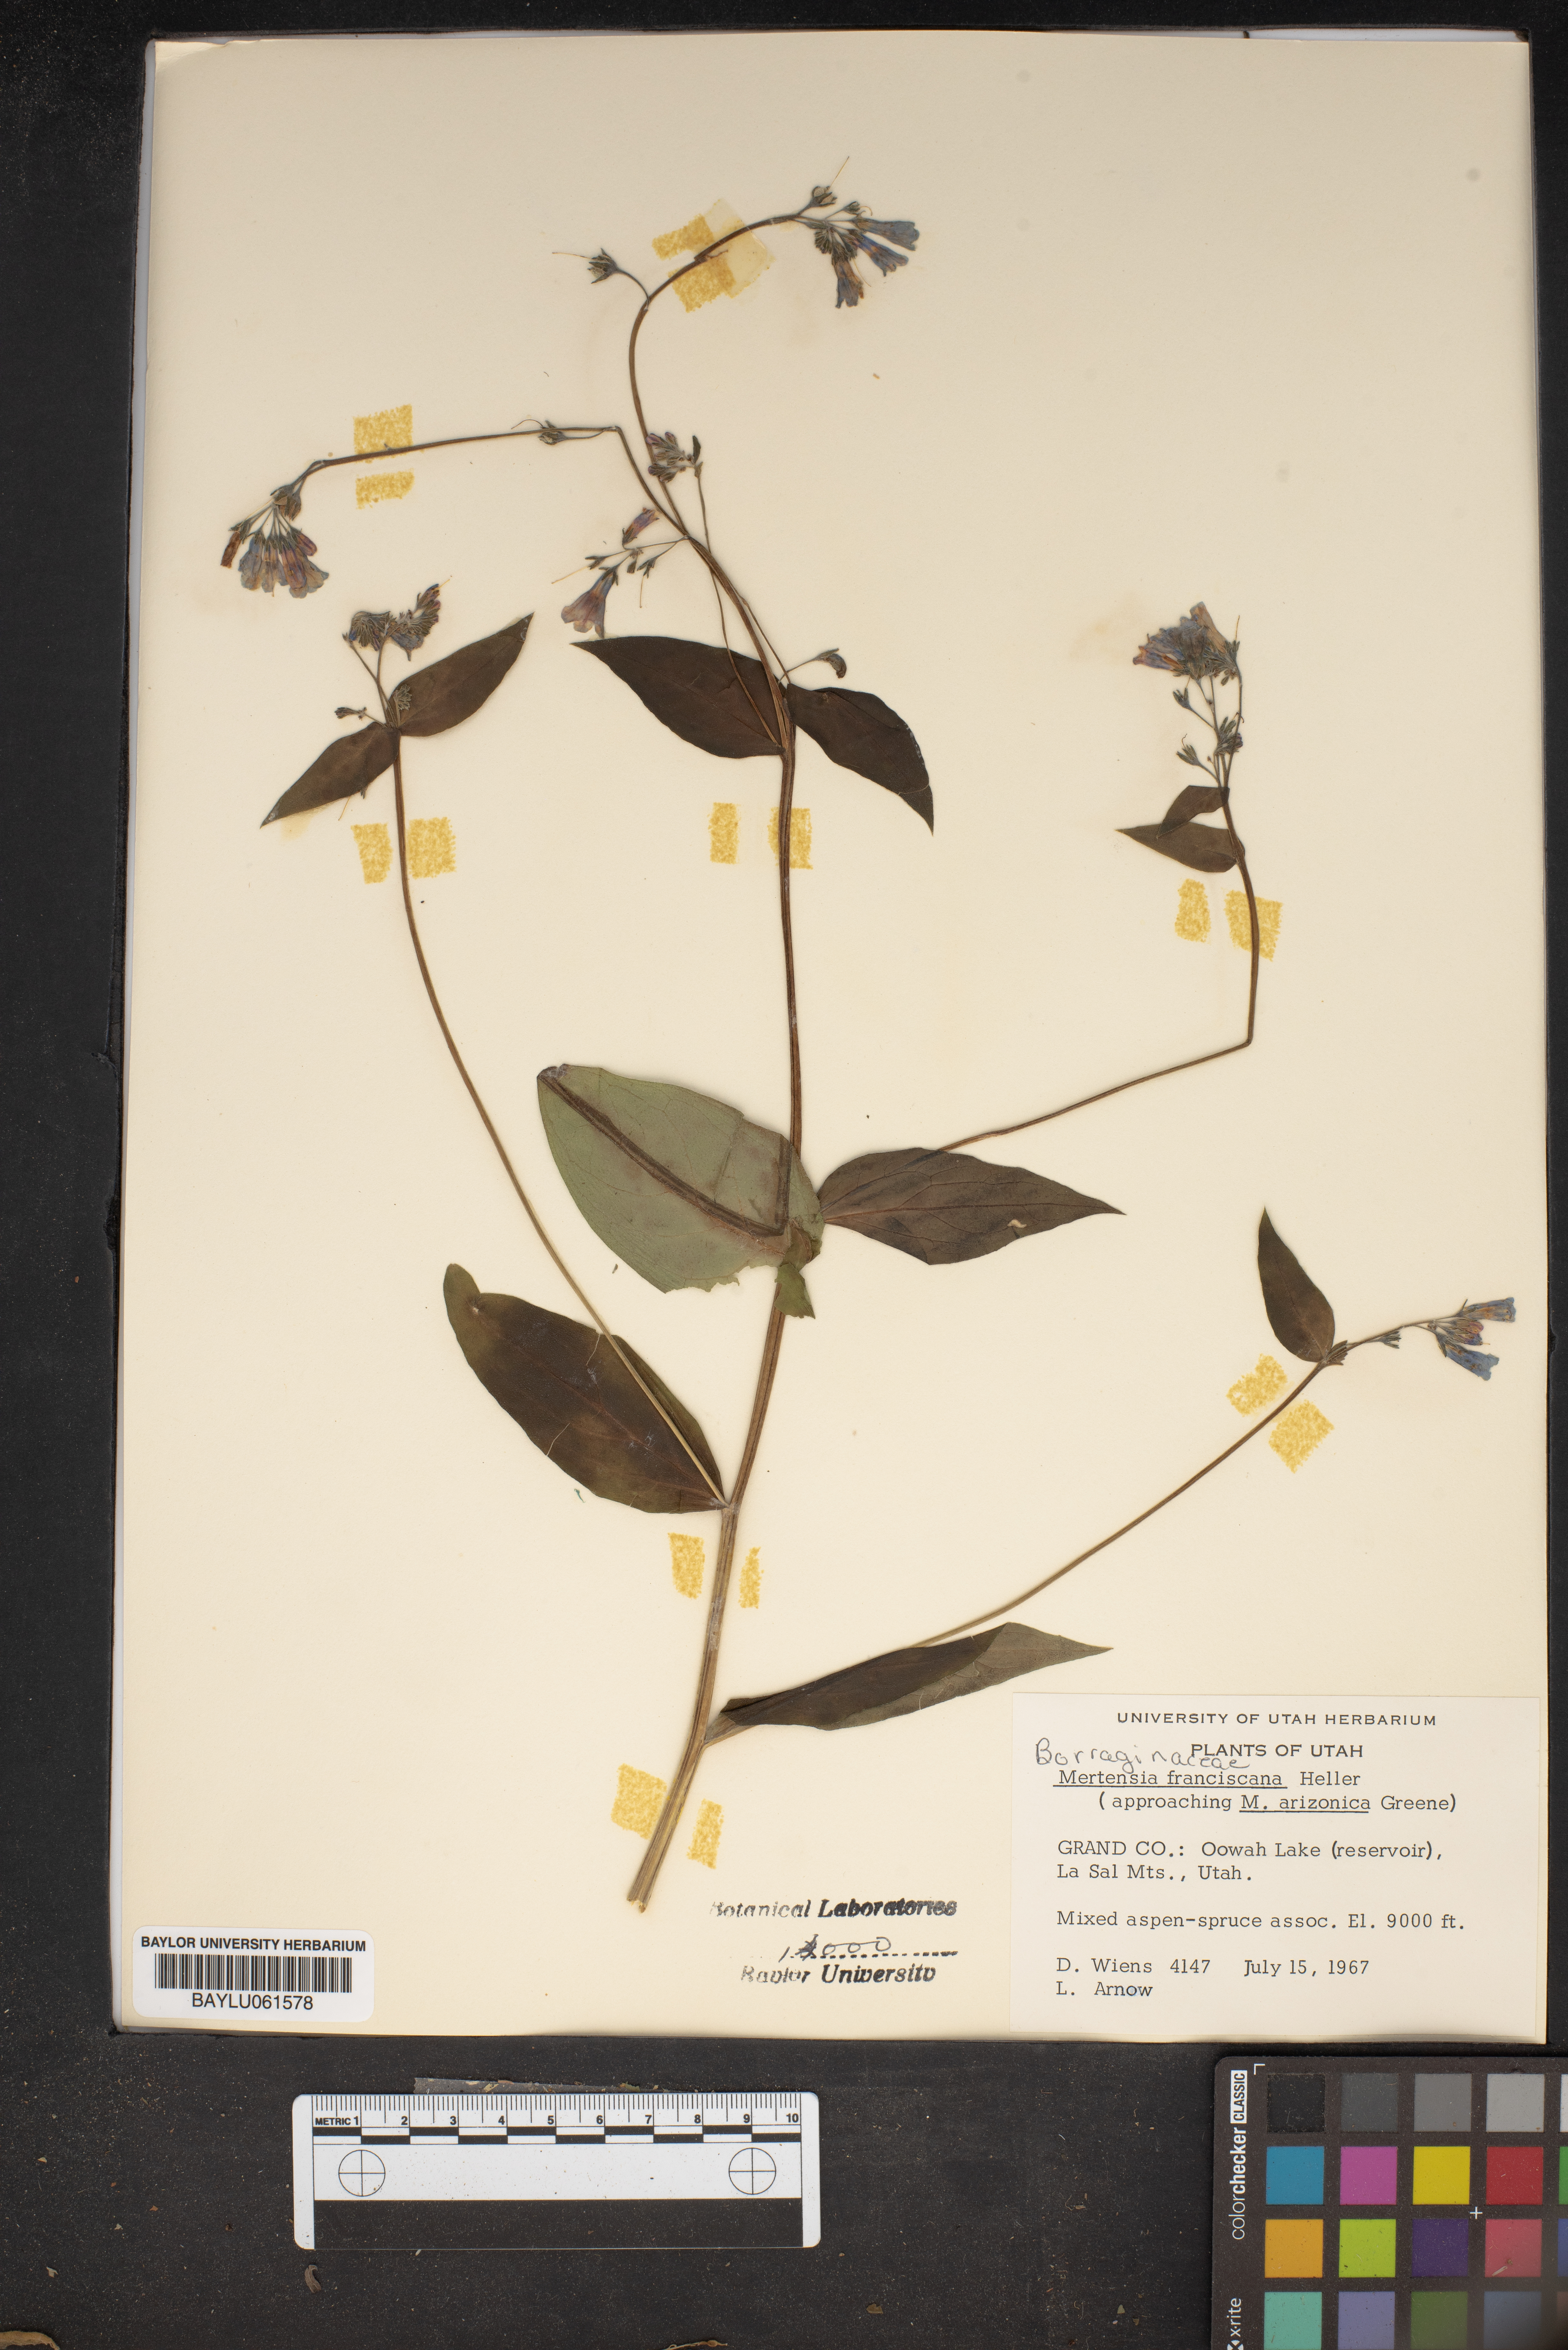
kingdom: Plantae
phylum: Tracheophyta
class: Magnoliopsida
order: Boraginales
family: Boraginaceae
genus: Mertensia
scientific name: Mertensia franciscana
